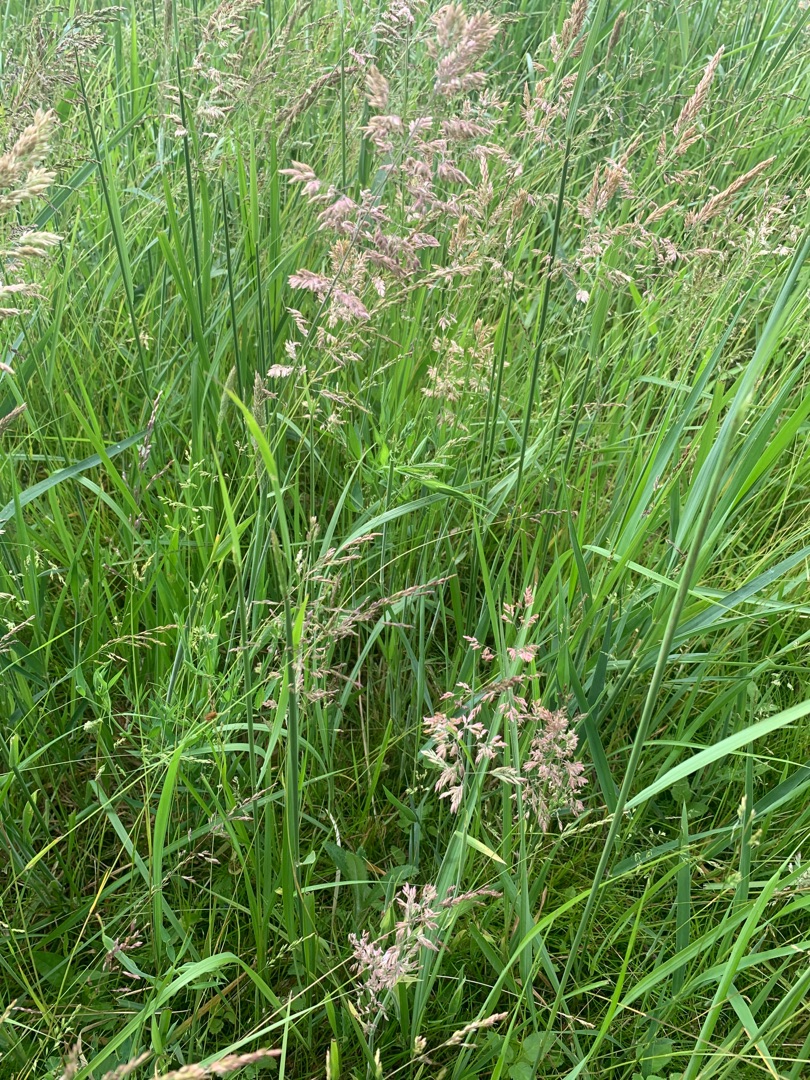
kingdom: Plantae
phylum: Tracheophyta
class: Liliopsida
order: Poales
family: Poaceae
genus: Holcus
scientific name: Holcus lanatus
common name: Fløjlsgræs
